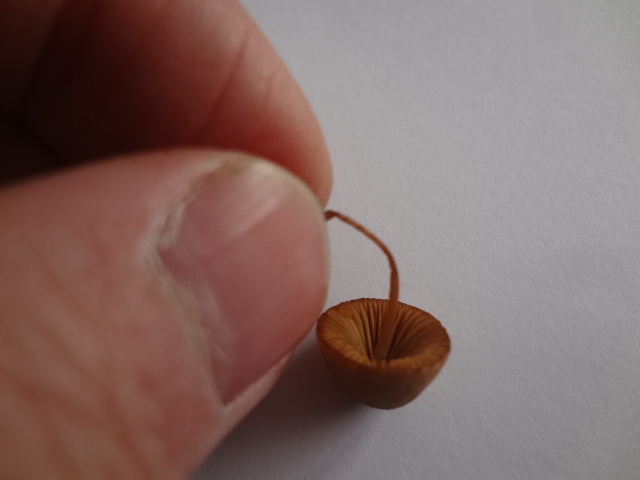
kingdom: Fungi
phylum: Basidiomycota
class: Agaricomycetes
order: Agaricales
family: Bolbitiaceae
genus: Conocybe
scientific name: Conocybe macrocephala
